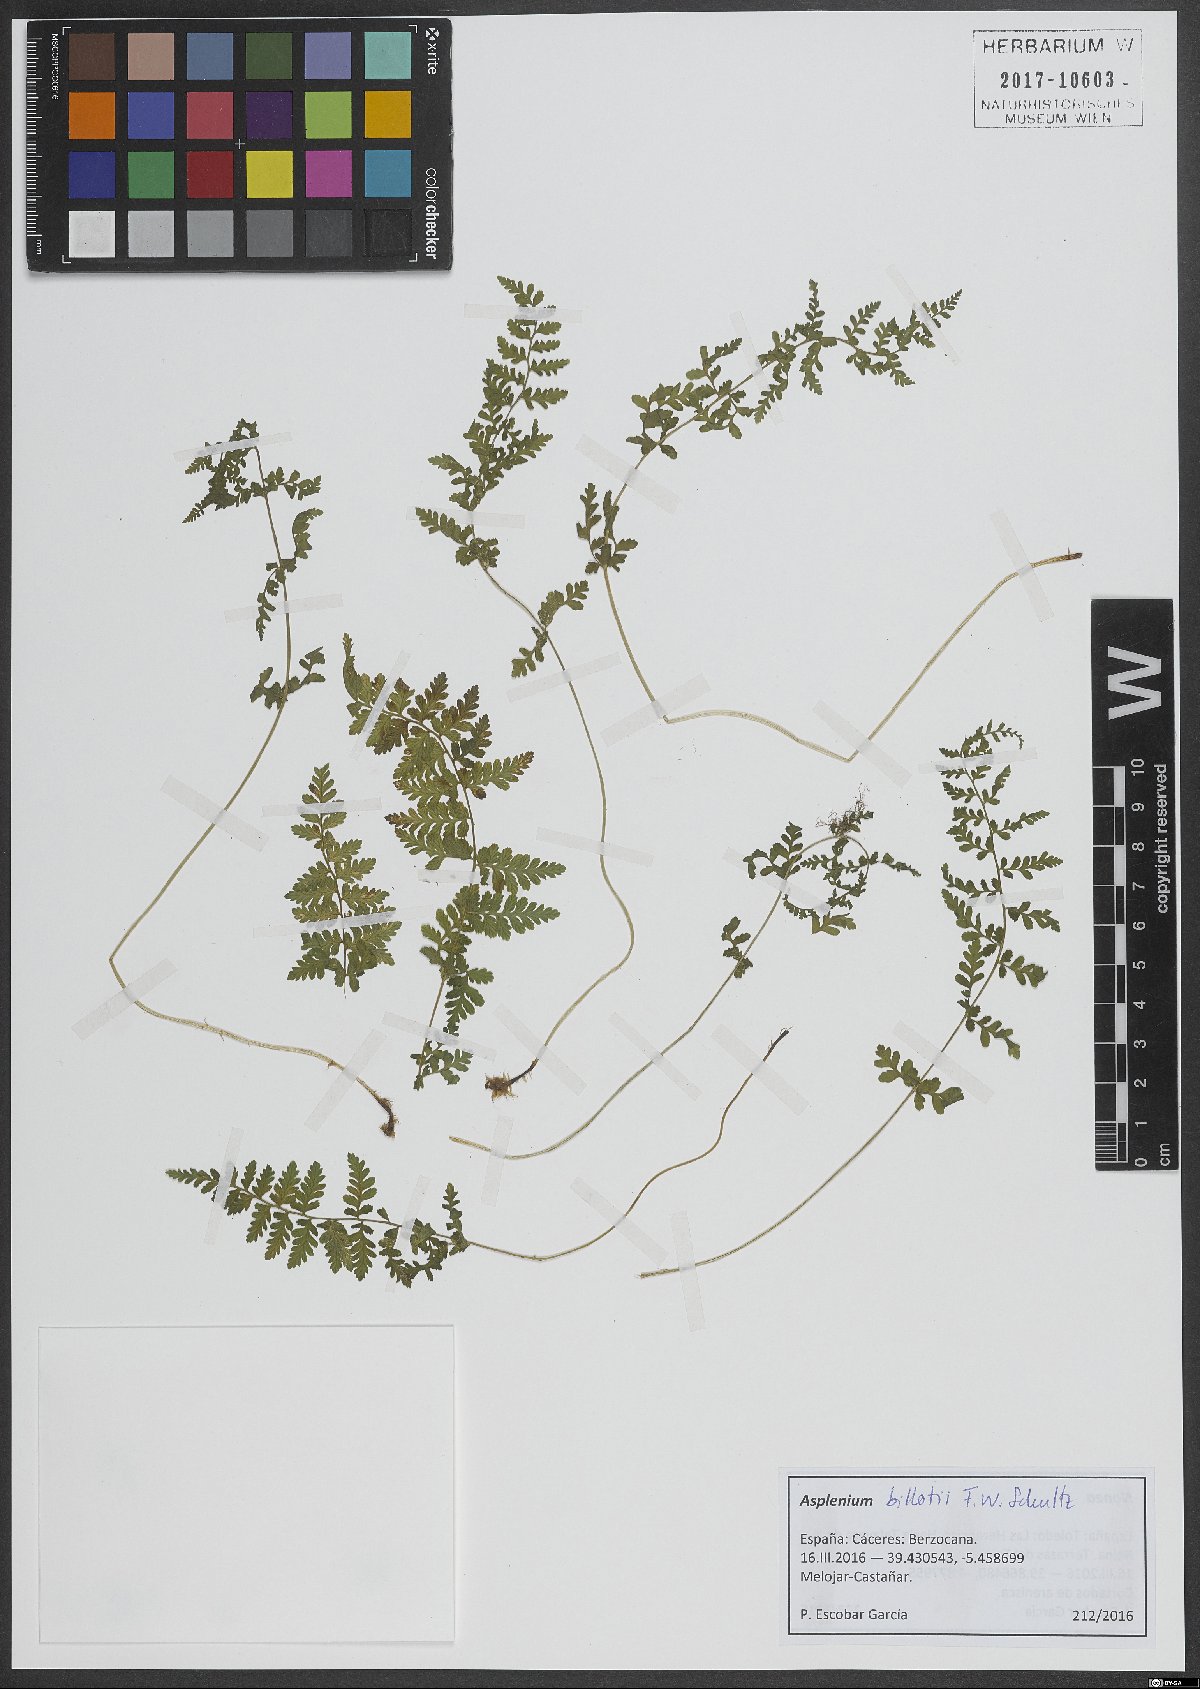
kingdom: Plantae
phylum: Tracheophyta
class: Polypodiopsida
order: Polypodiales
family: Aspleniaceae
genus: Asplenium
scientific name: Asplenium obovatum
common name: Lanceolate spleenwort
